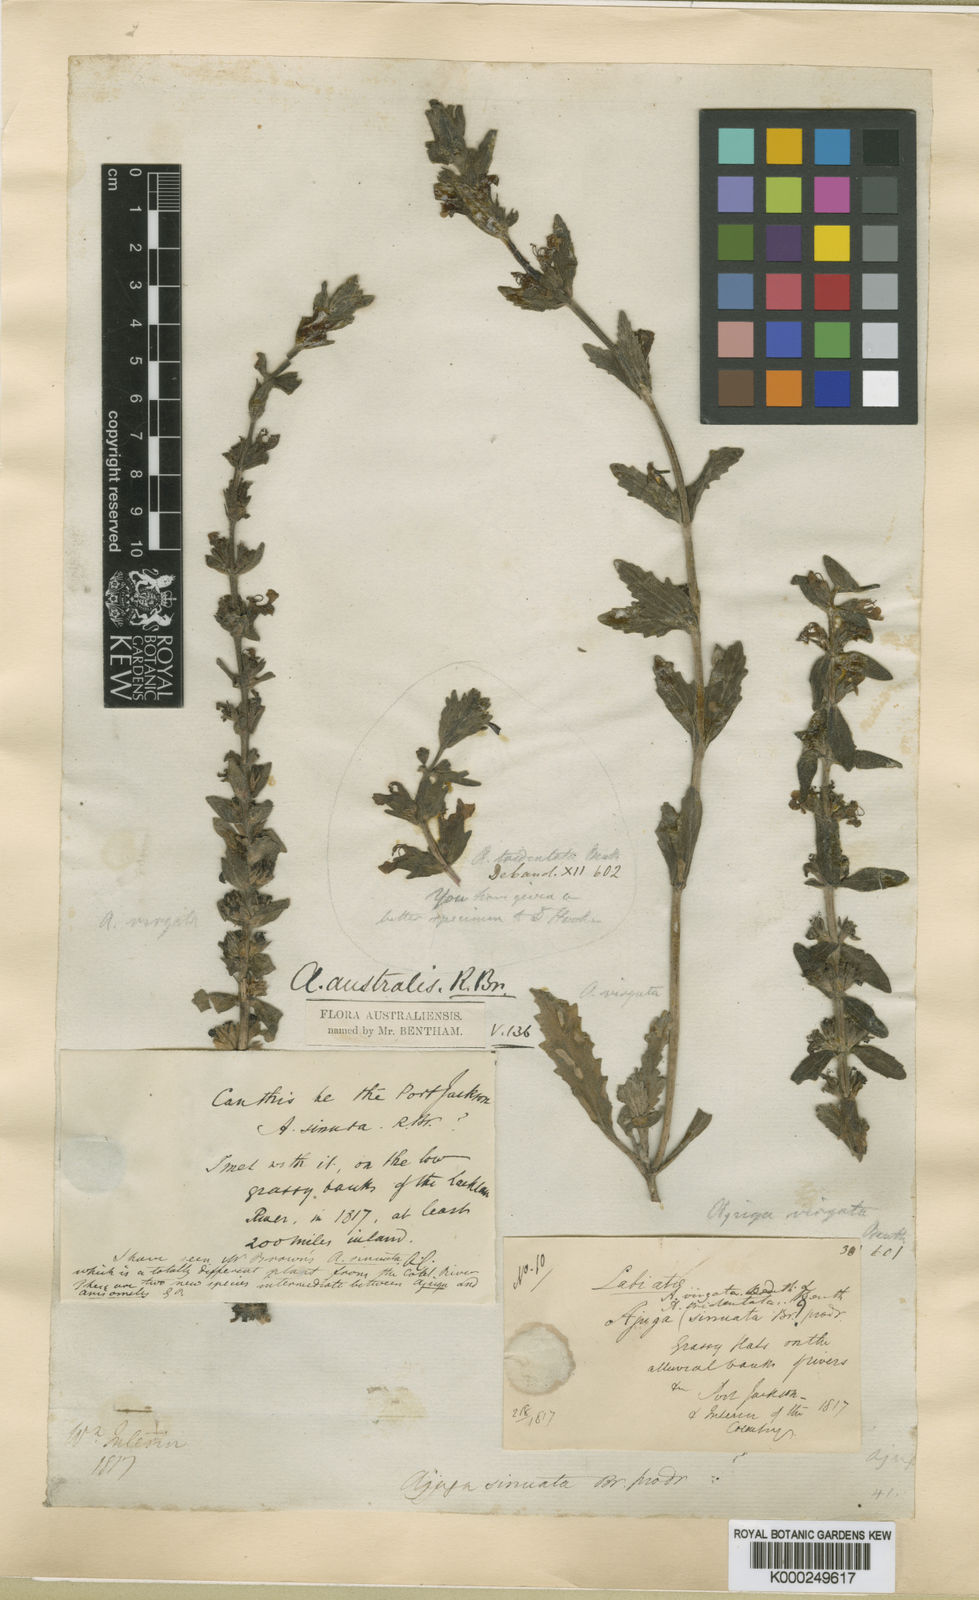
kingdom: Plantae
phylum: Tracheophyta
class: Magnoliopsida
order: Lamiales
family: Lamiaceae
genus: Ajuga
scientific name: Ajuga australis
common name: Australian bugle
